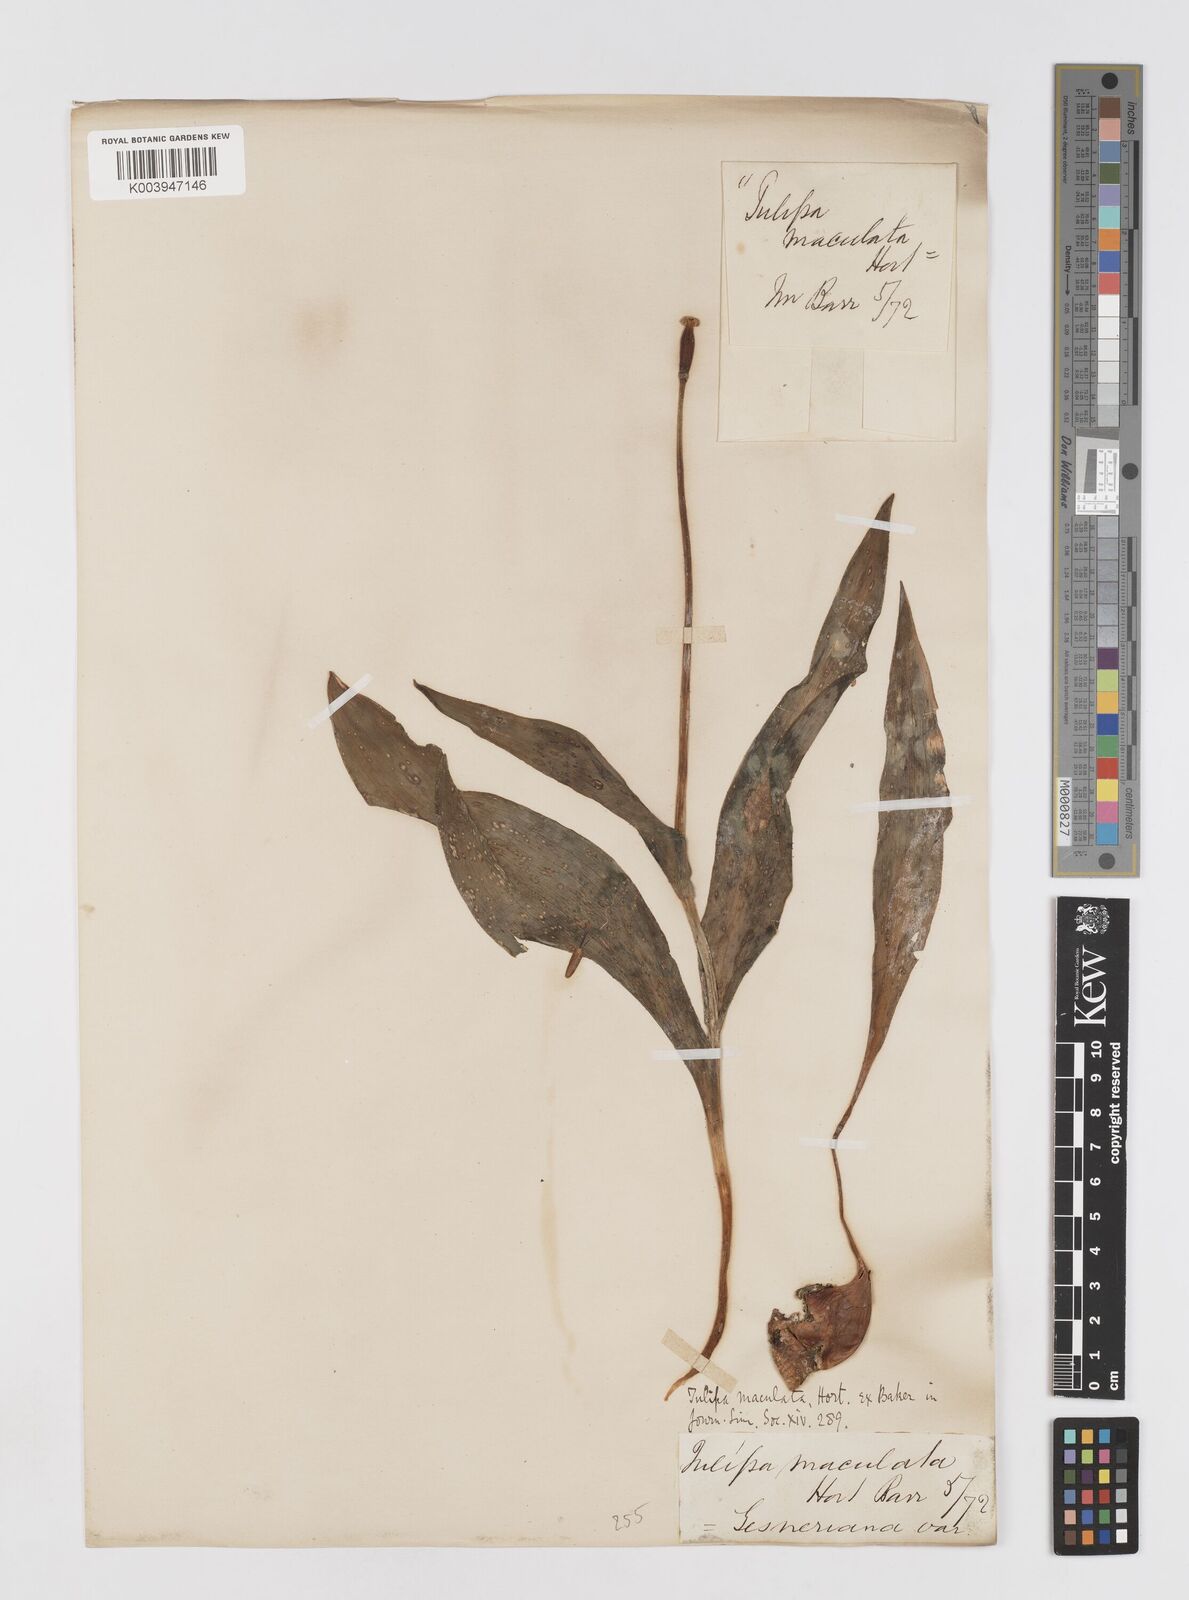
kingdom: Plantae
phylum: Tracheophyta
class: Liliopsida
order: Liliales
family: Liliaceae
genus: Tulipa
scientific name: Tulipa gesneriana
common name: Garden tulip
